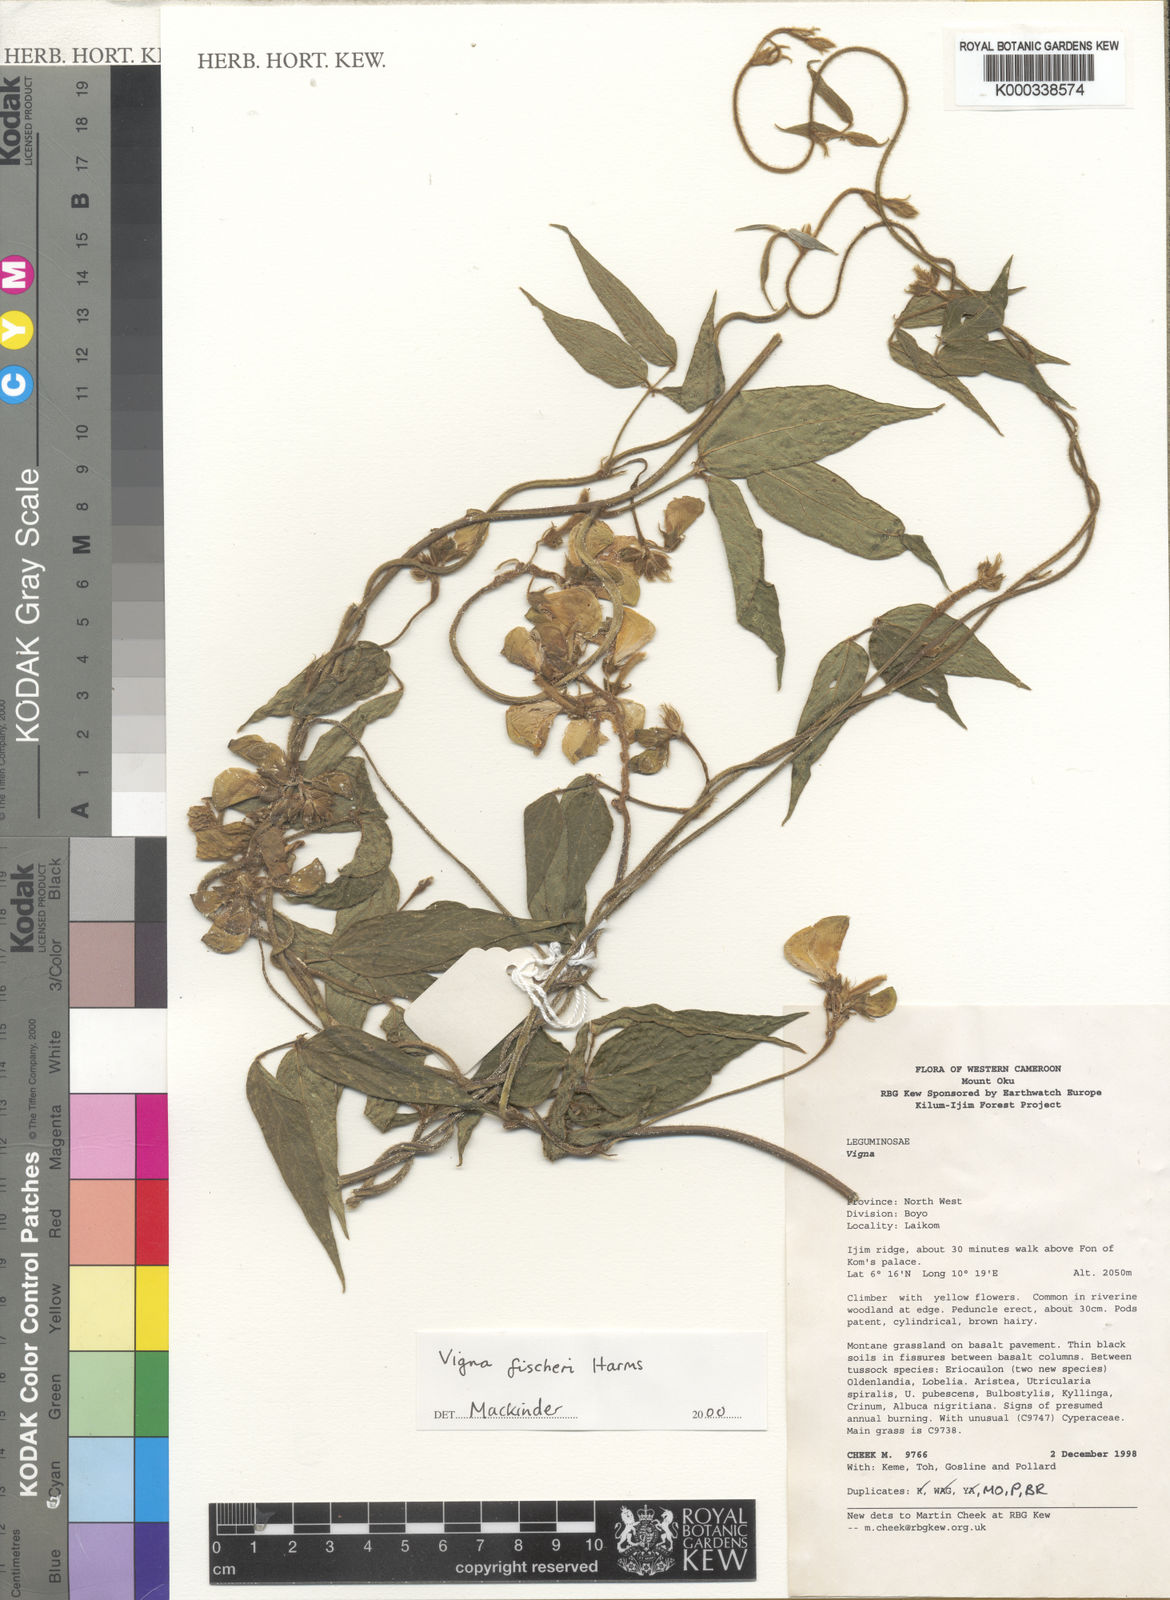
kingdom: Plantae
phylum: Tracheophyta
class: Magnoliopsida
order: Fabales
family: Fabaceae
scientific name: Fabaceae
